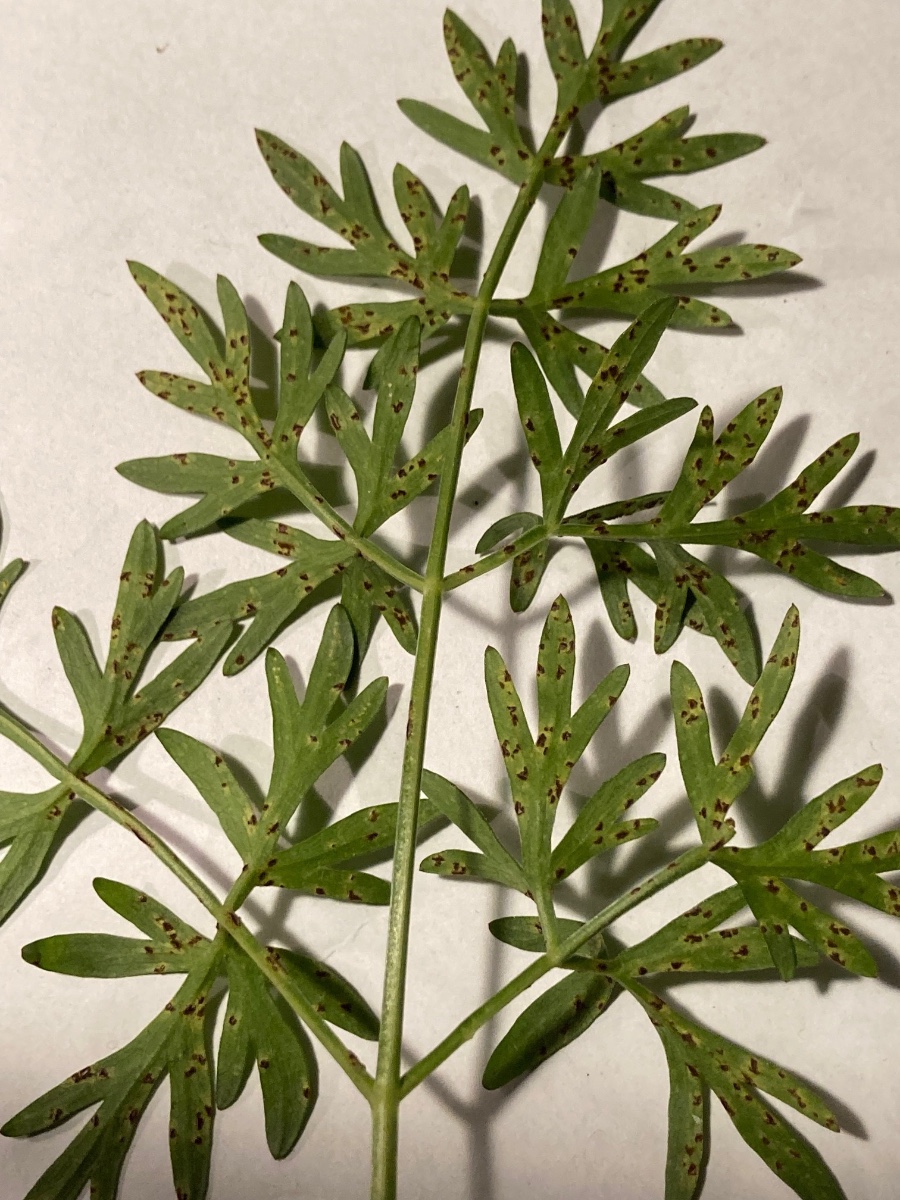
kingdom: Fungi
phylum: Basidiomycota
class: Pucciniomycetes
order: Pucciniales
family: Pucciniaceae
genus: Puccinia
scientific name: Puccinia angelicae
